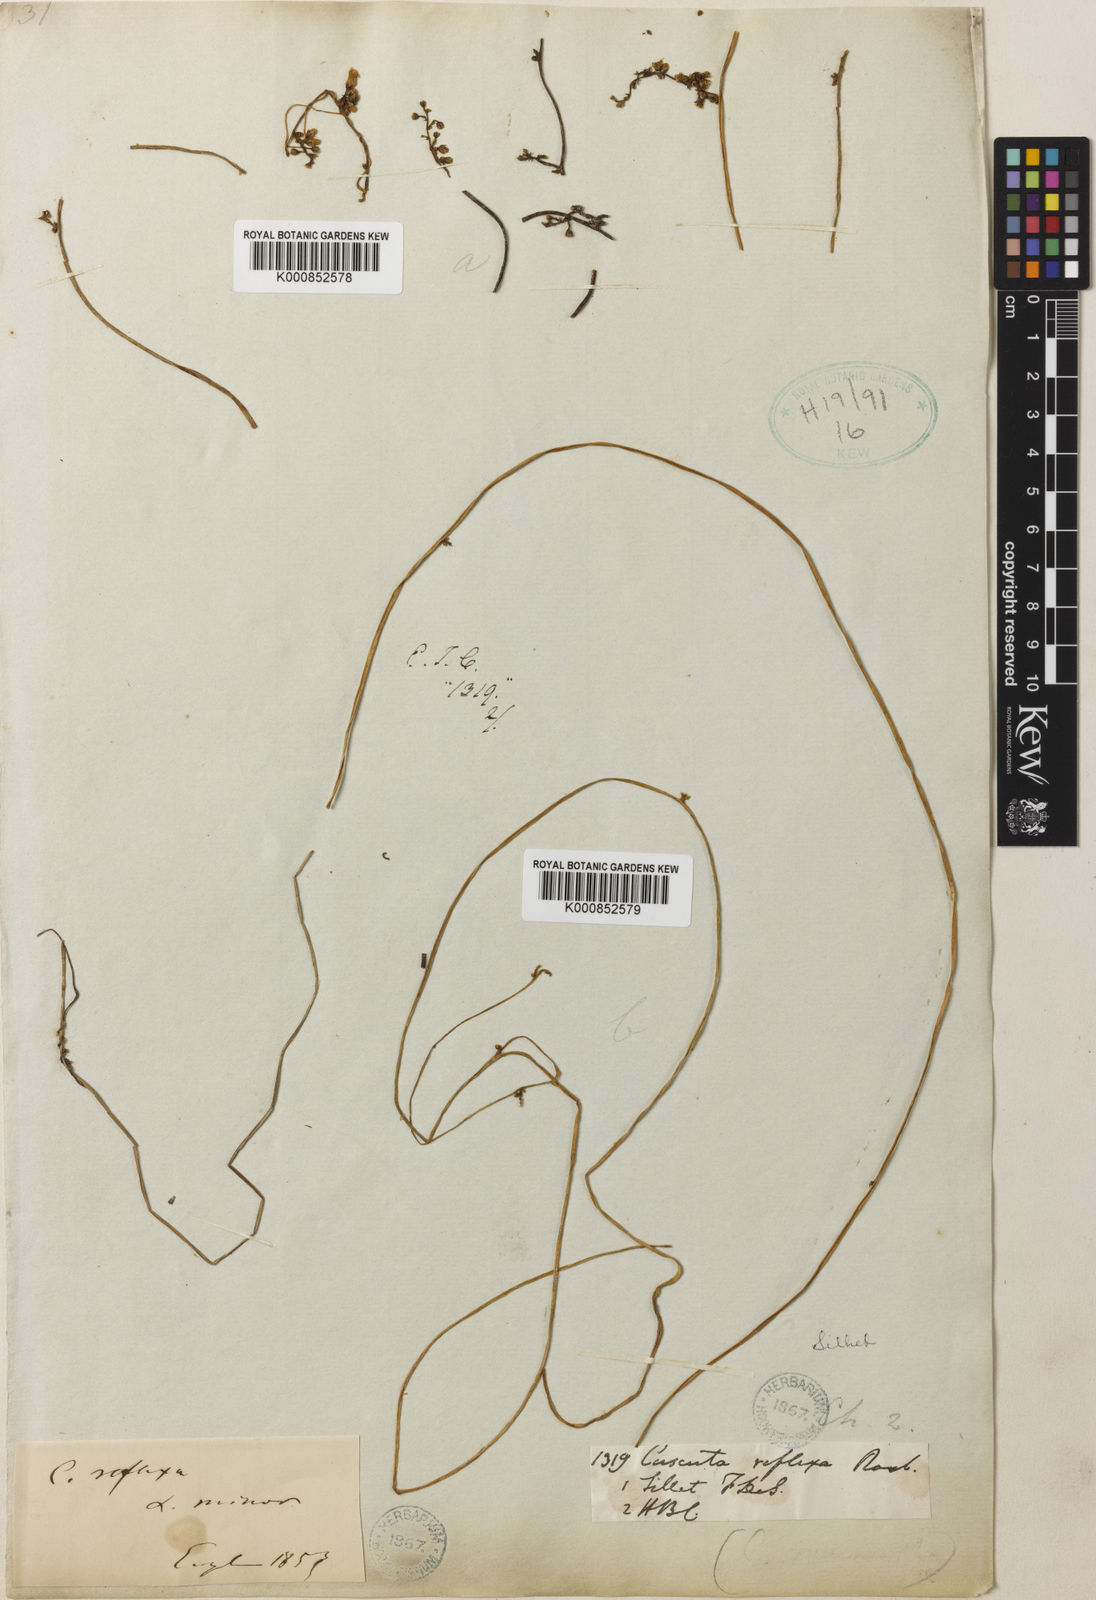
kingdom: Plantae
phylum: Tracheophyta
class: Magnoliopsida
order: Solanales
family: Convolvulaceae
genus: Cuscuta
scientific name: Cuscuta reflexa
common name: Giant dodder
